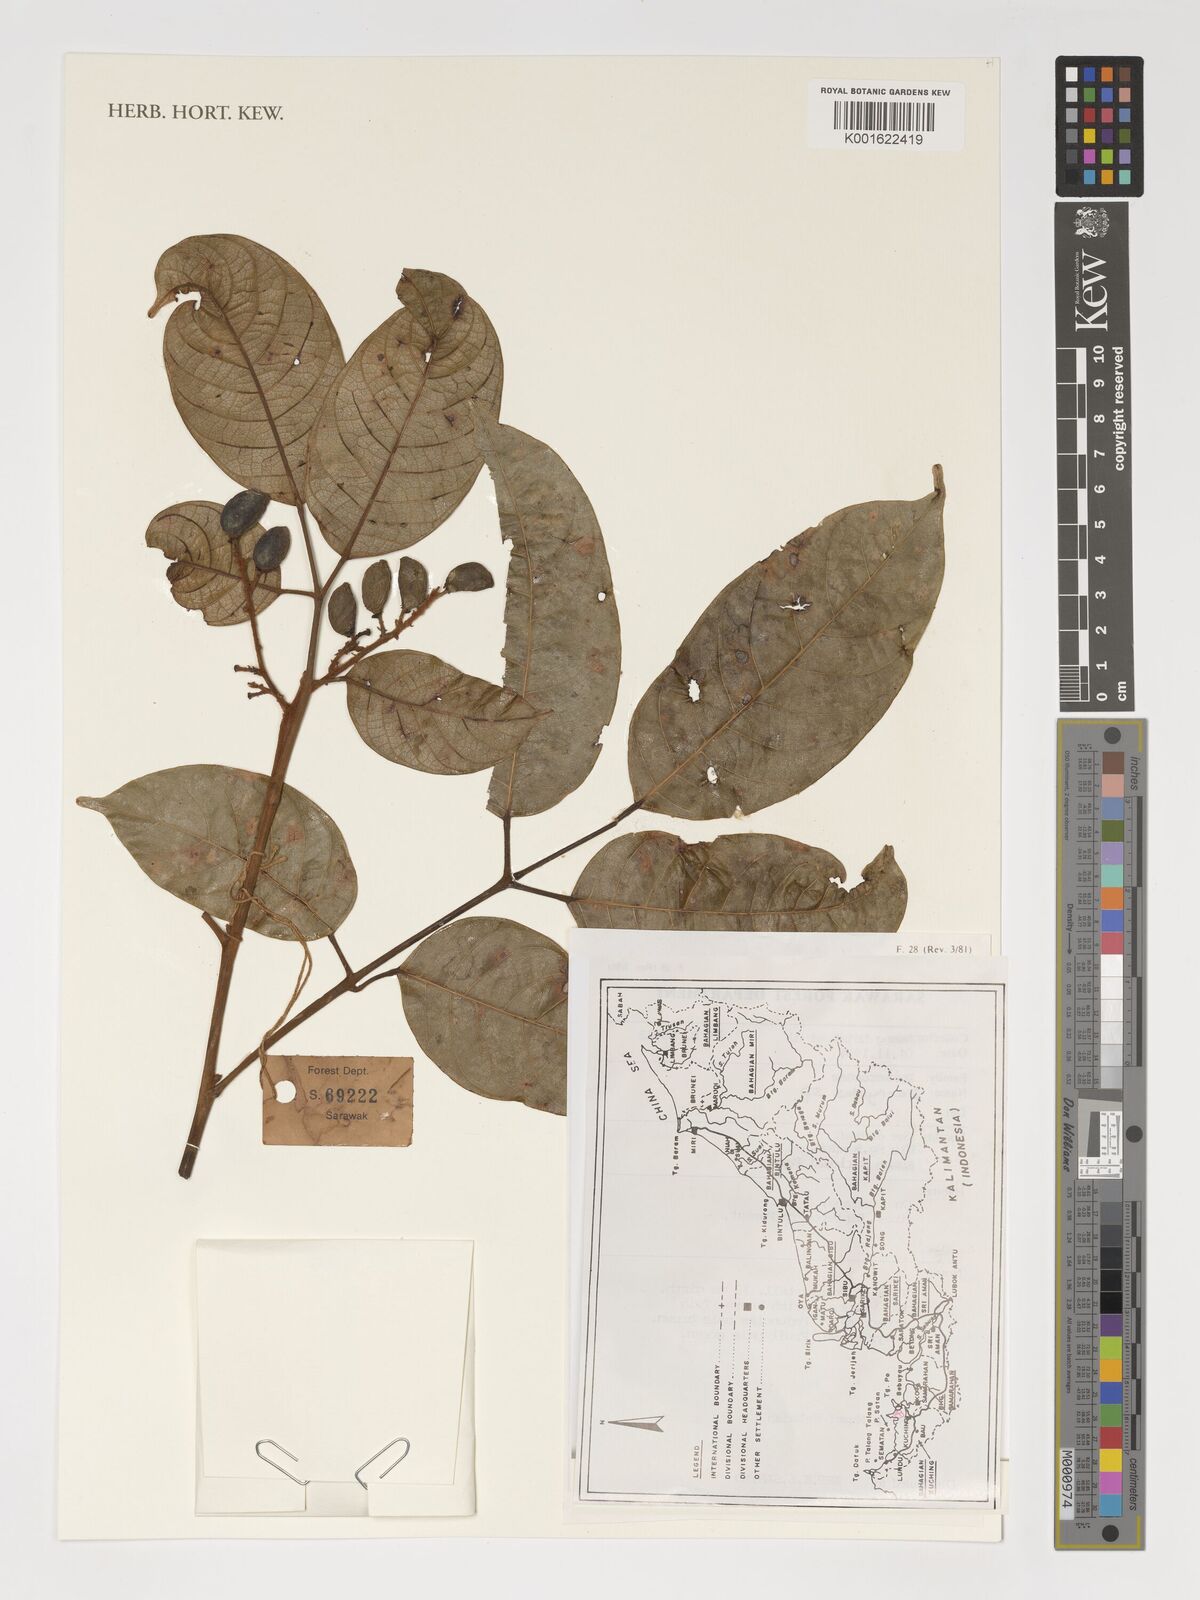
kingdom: Plantae
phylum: Tracheophyta
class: Magnoliopsida
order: Sapindales
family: Burseraceae
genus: Dacryodes
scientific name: Dacryodes
